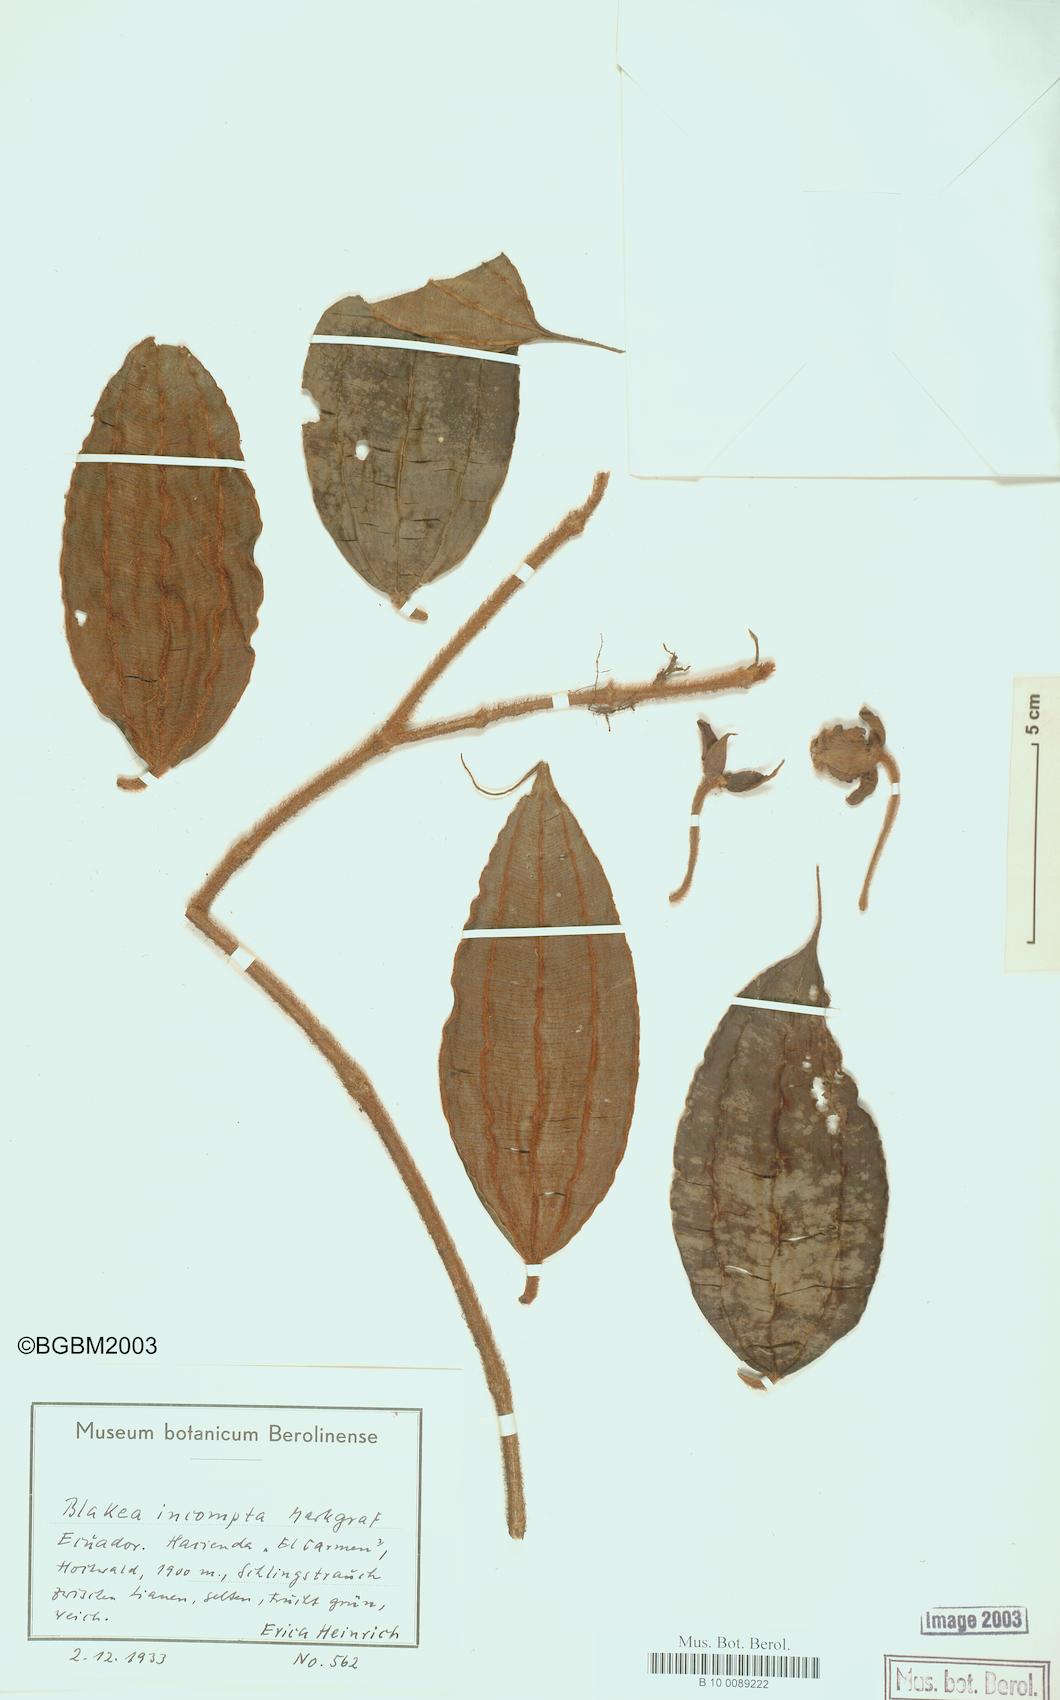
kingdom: Plantae
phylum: Tracheophyta
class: Magnoliopsida
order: Myrtales
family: Melastomataceae
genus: Blakea
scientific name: Blakea incompta
